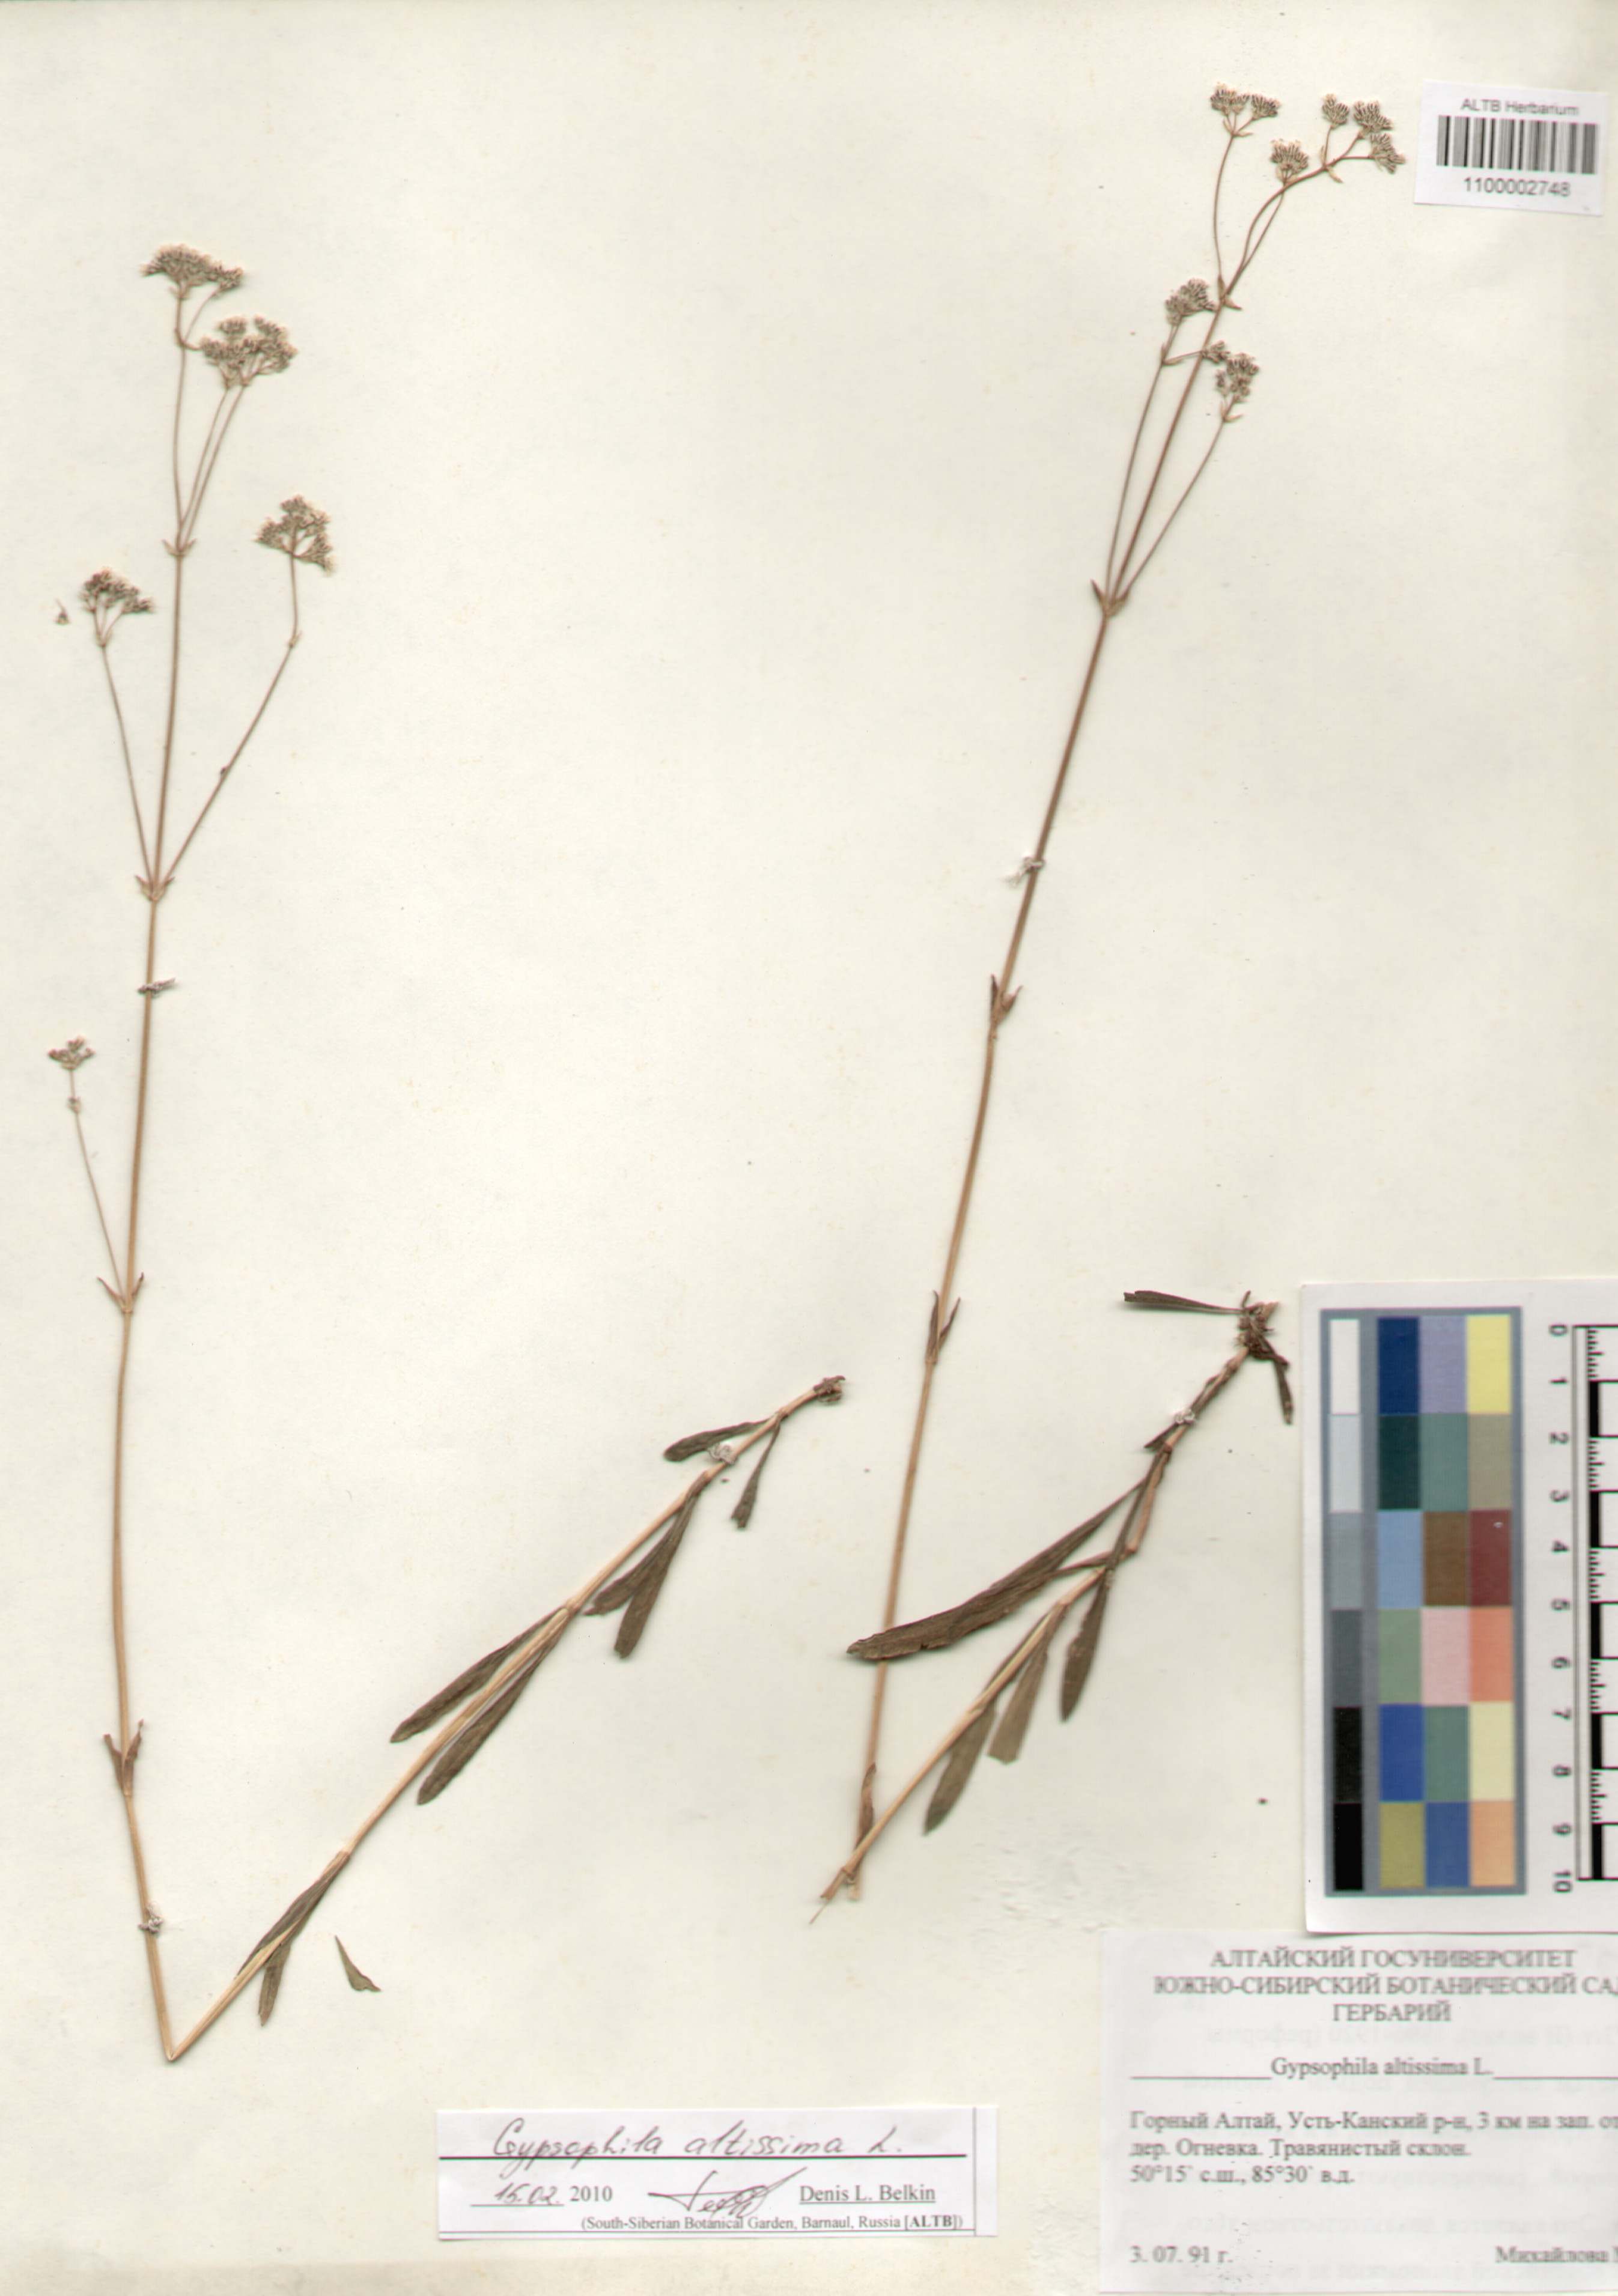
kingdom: Plantae
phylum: Tracheophyta
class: Magnoliopsida
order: Caryophyllales
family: Caryophyllaceae
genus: Gypsophila
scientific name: Gypsophila altissima
